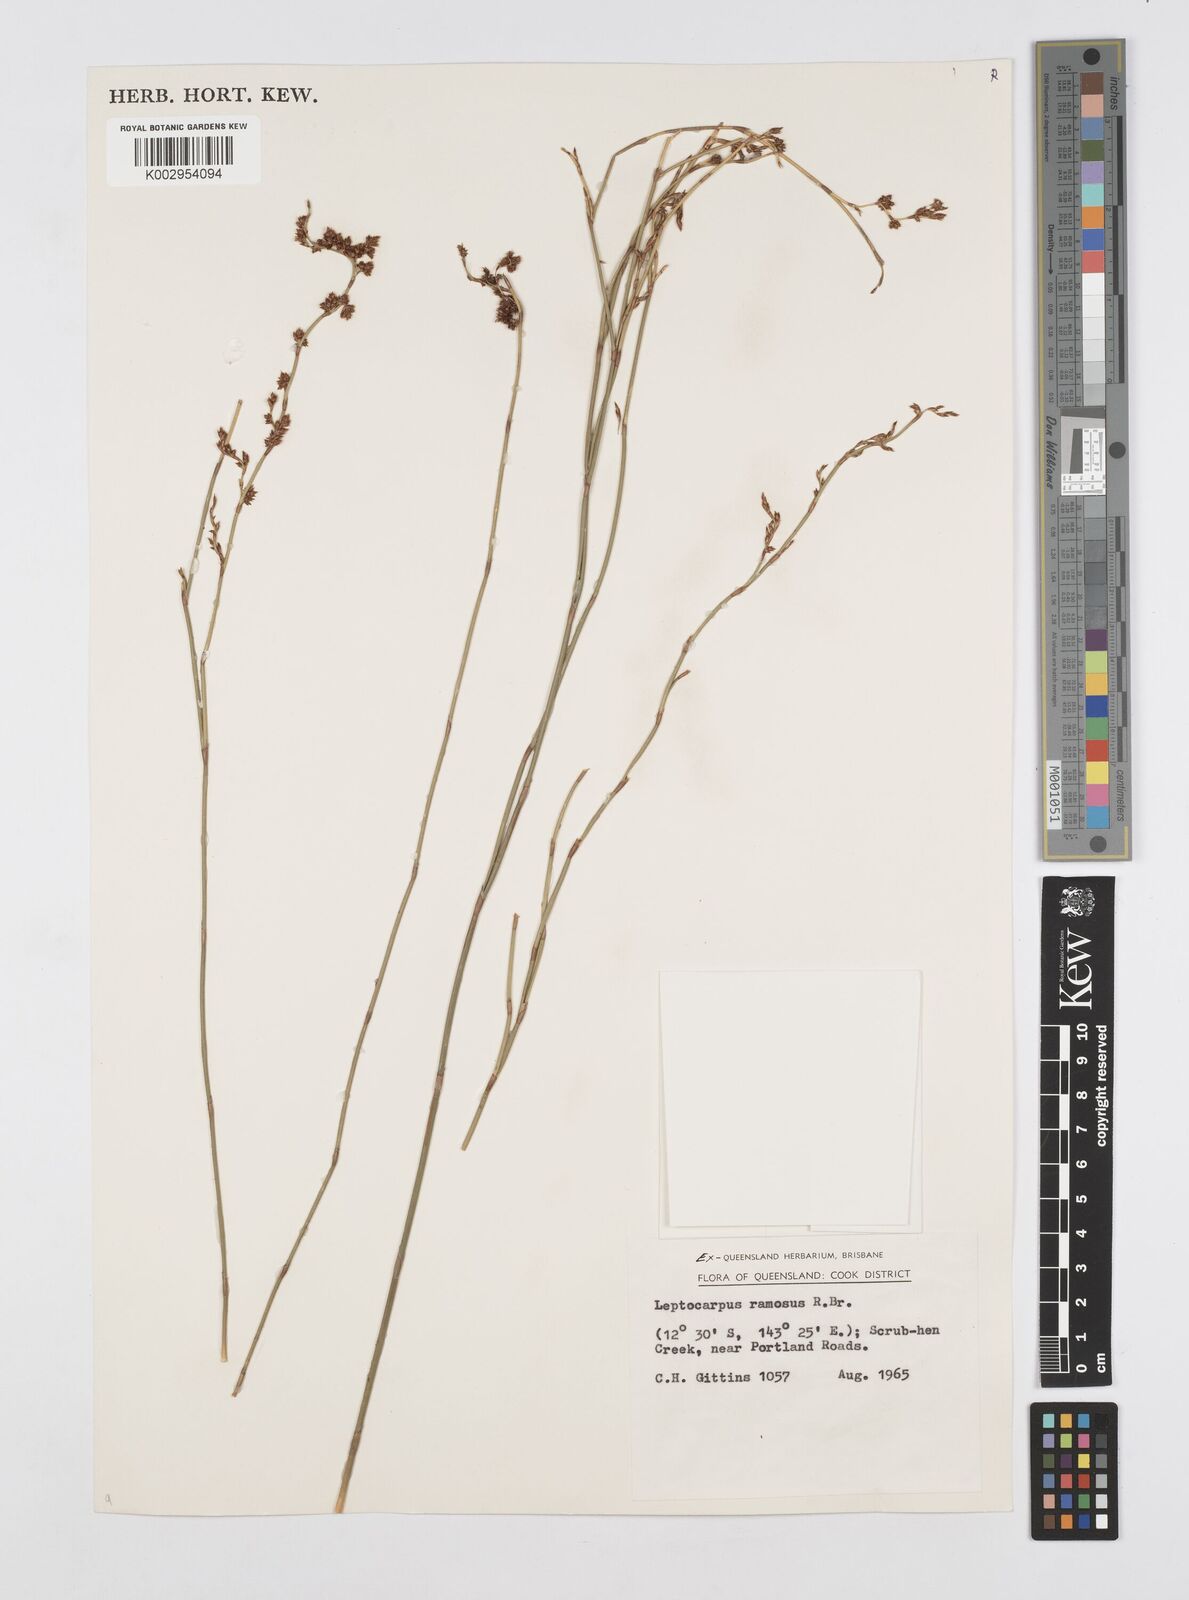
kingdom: Plantae
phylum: Tracheophyta
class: Liliopsida
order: Poales
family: Restionaceae
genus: Dapsilanthus
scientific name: Dapsilanthus ramosus
